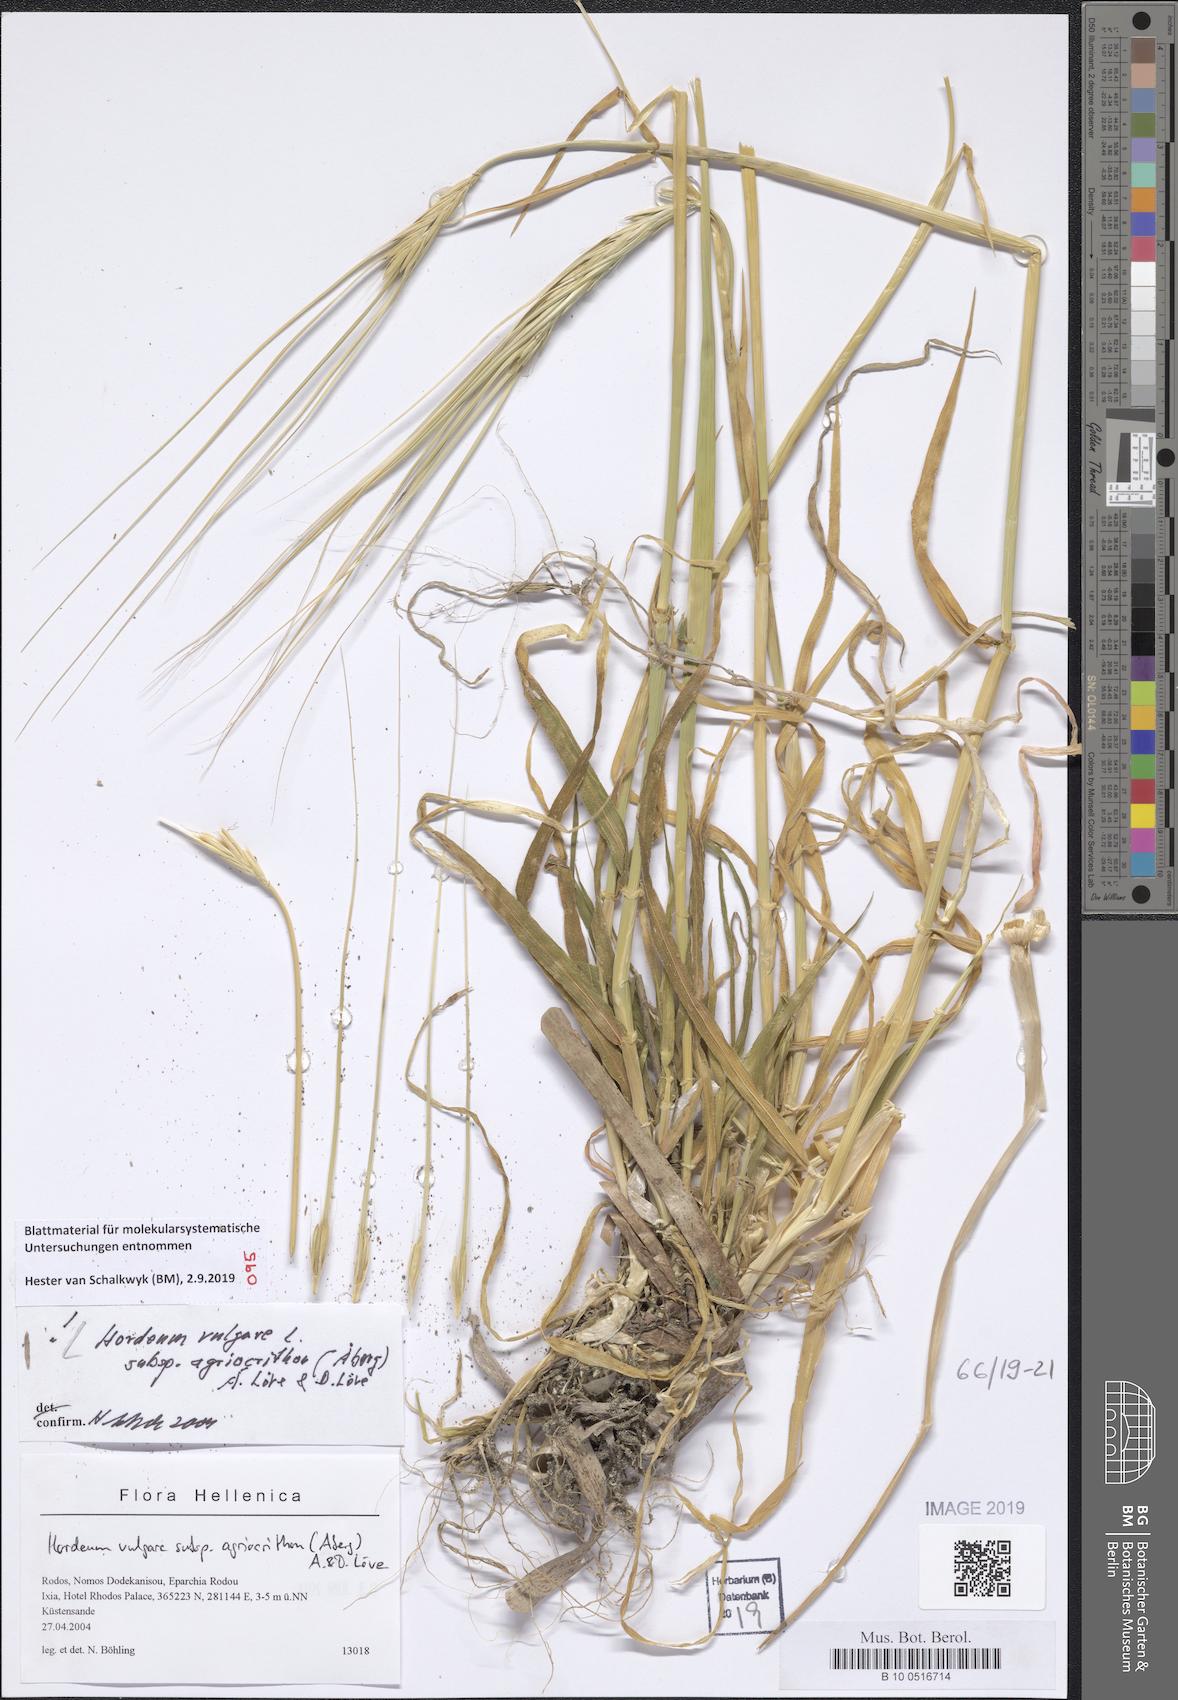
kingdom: Plantae
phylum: Tracheophyta
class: Liliopsida
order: Poales
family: Poaceae
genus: Hordeum
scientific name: Hordeum spontaneum
